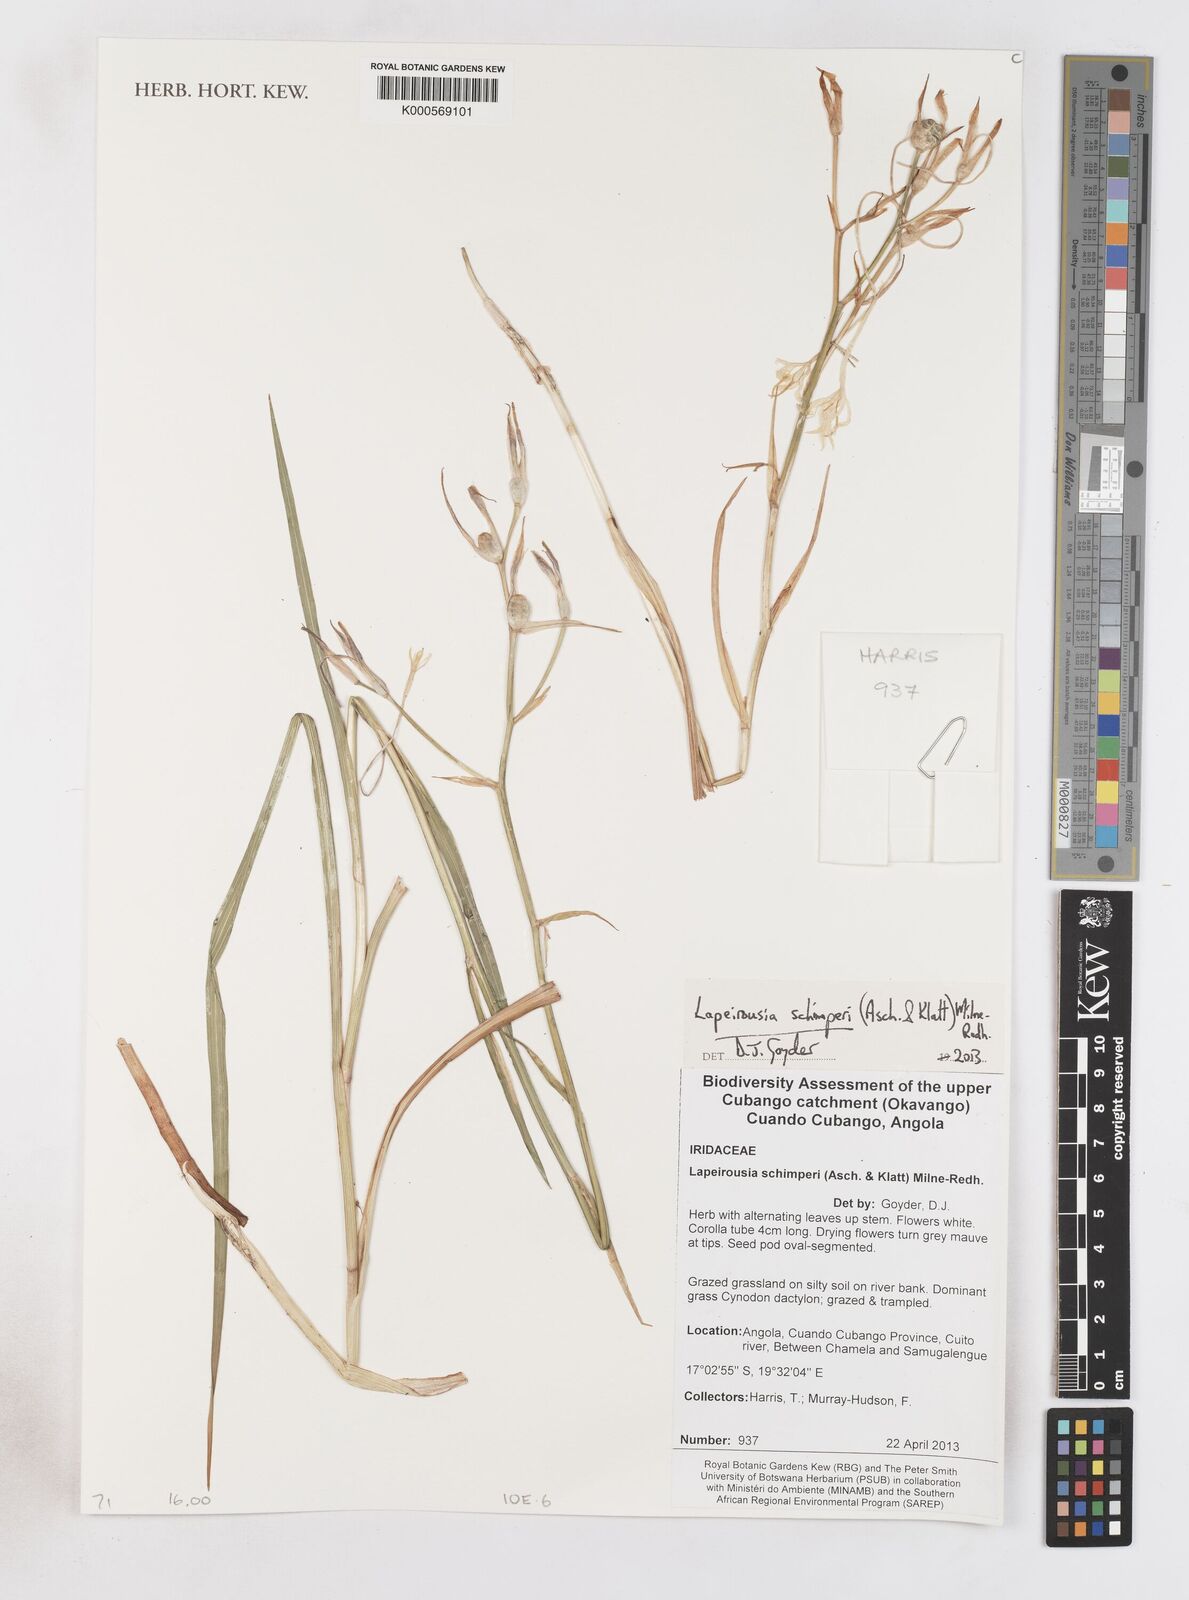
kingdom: Plantae
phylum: Tracheophyta
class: Liliopsida
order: Asparagales
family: Iridaceae
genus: Afrosolen
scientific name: Afrosolen schimperi
